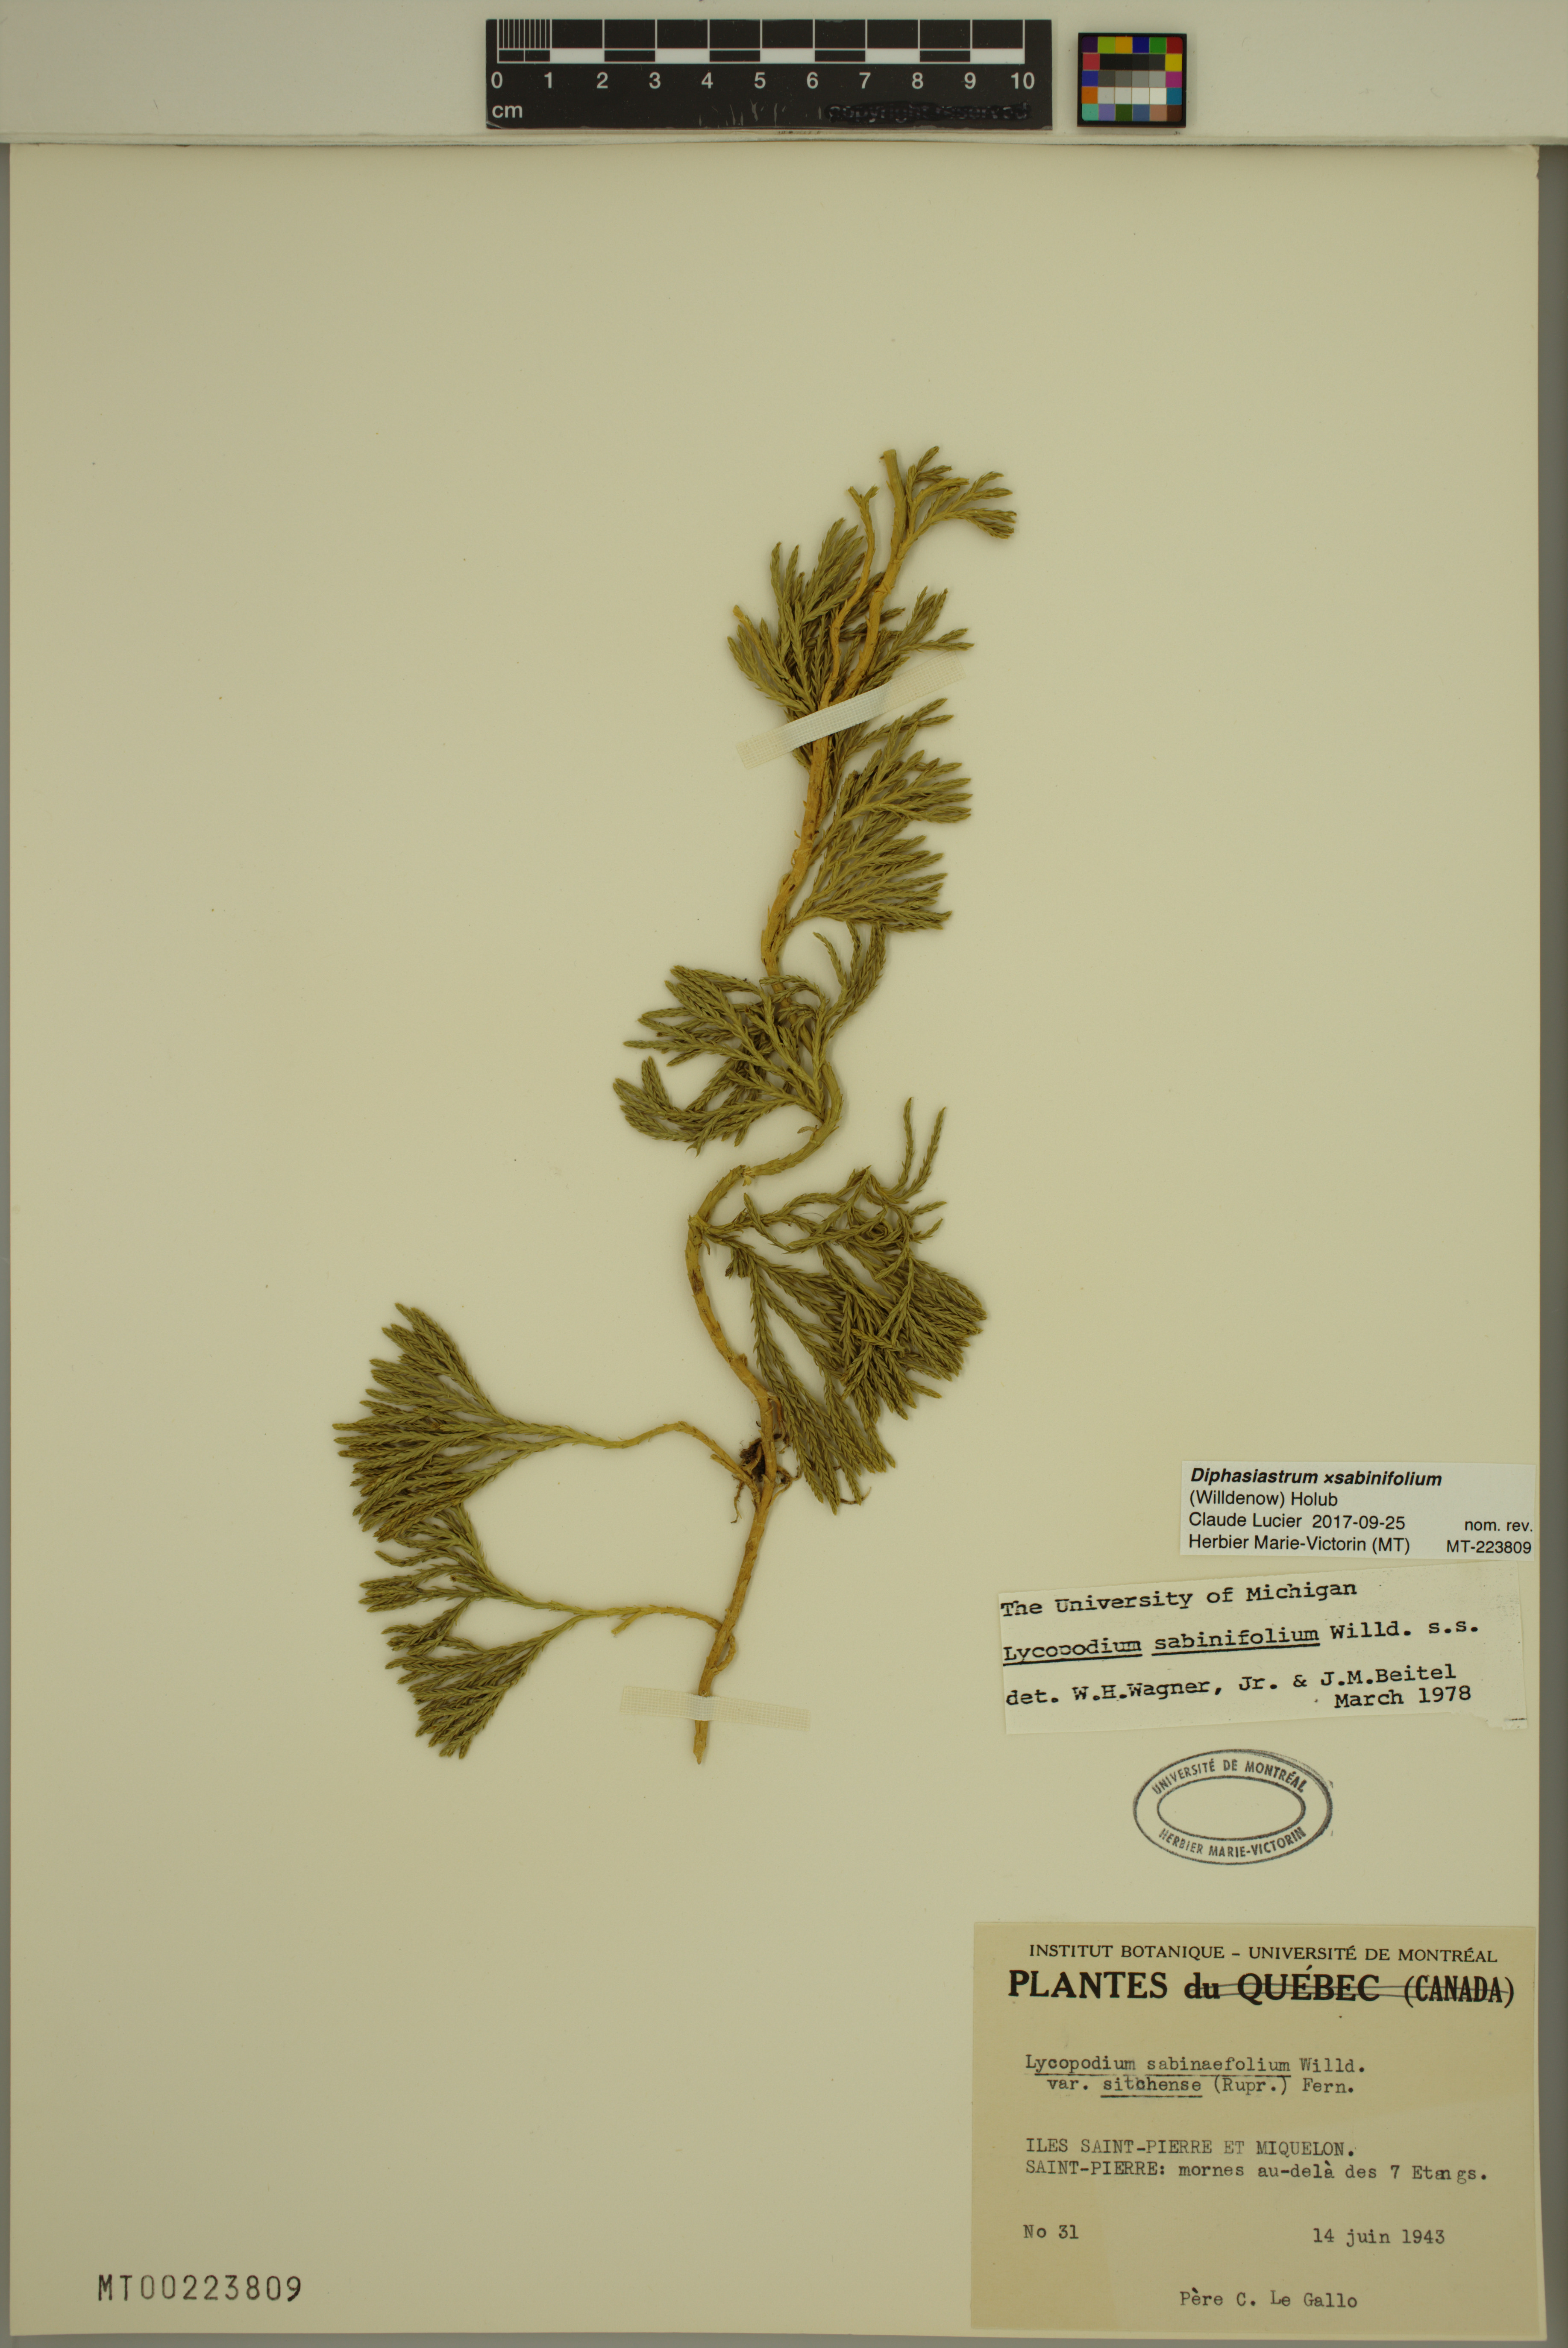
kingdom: Plantae
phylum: Tracheophyta
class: Lycopodiopsida
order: Lycopodiales
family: Lycopodiaceae
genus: Diphasiastrum
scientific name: Diphasiastrum sabinifolium
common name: Juniper clubmoss
